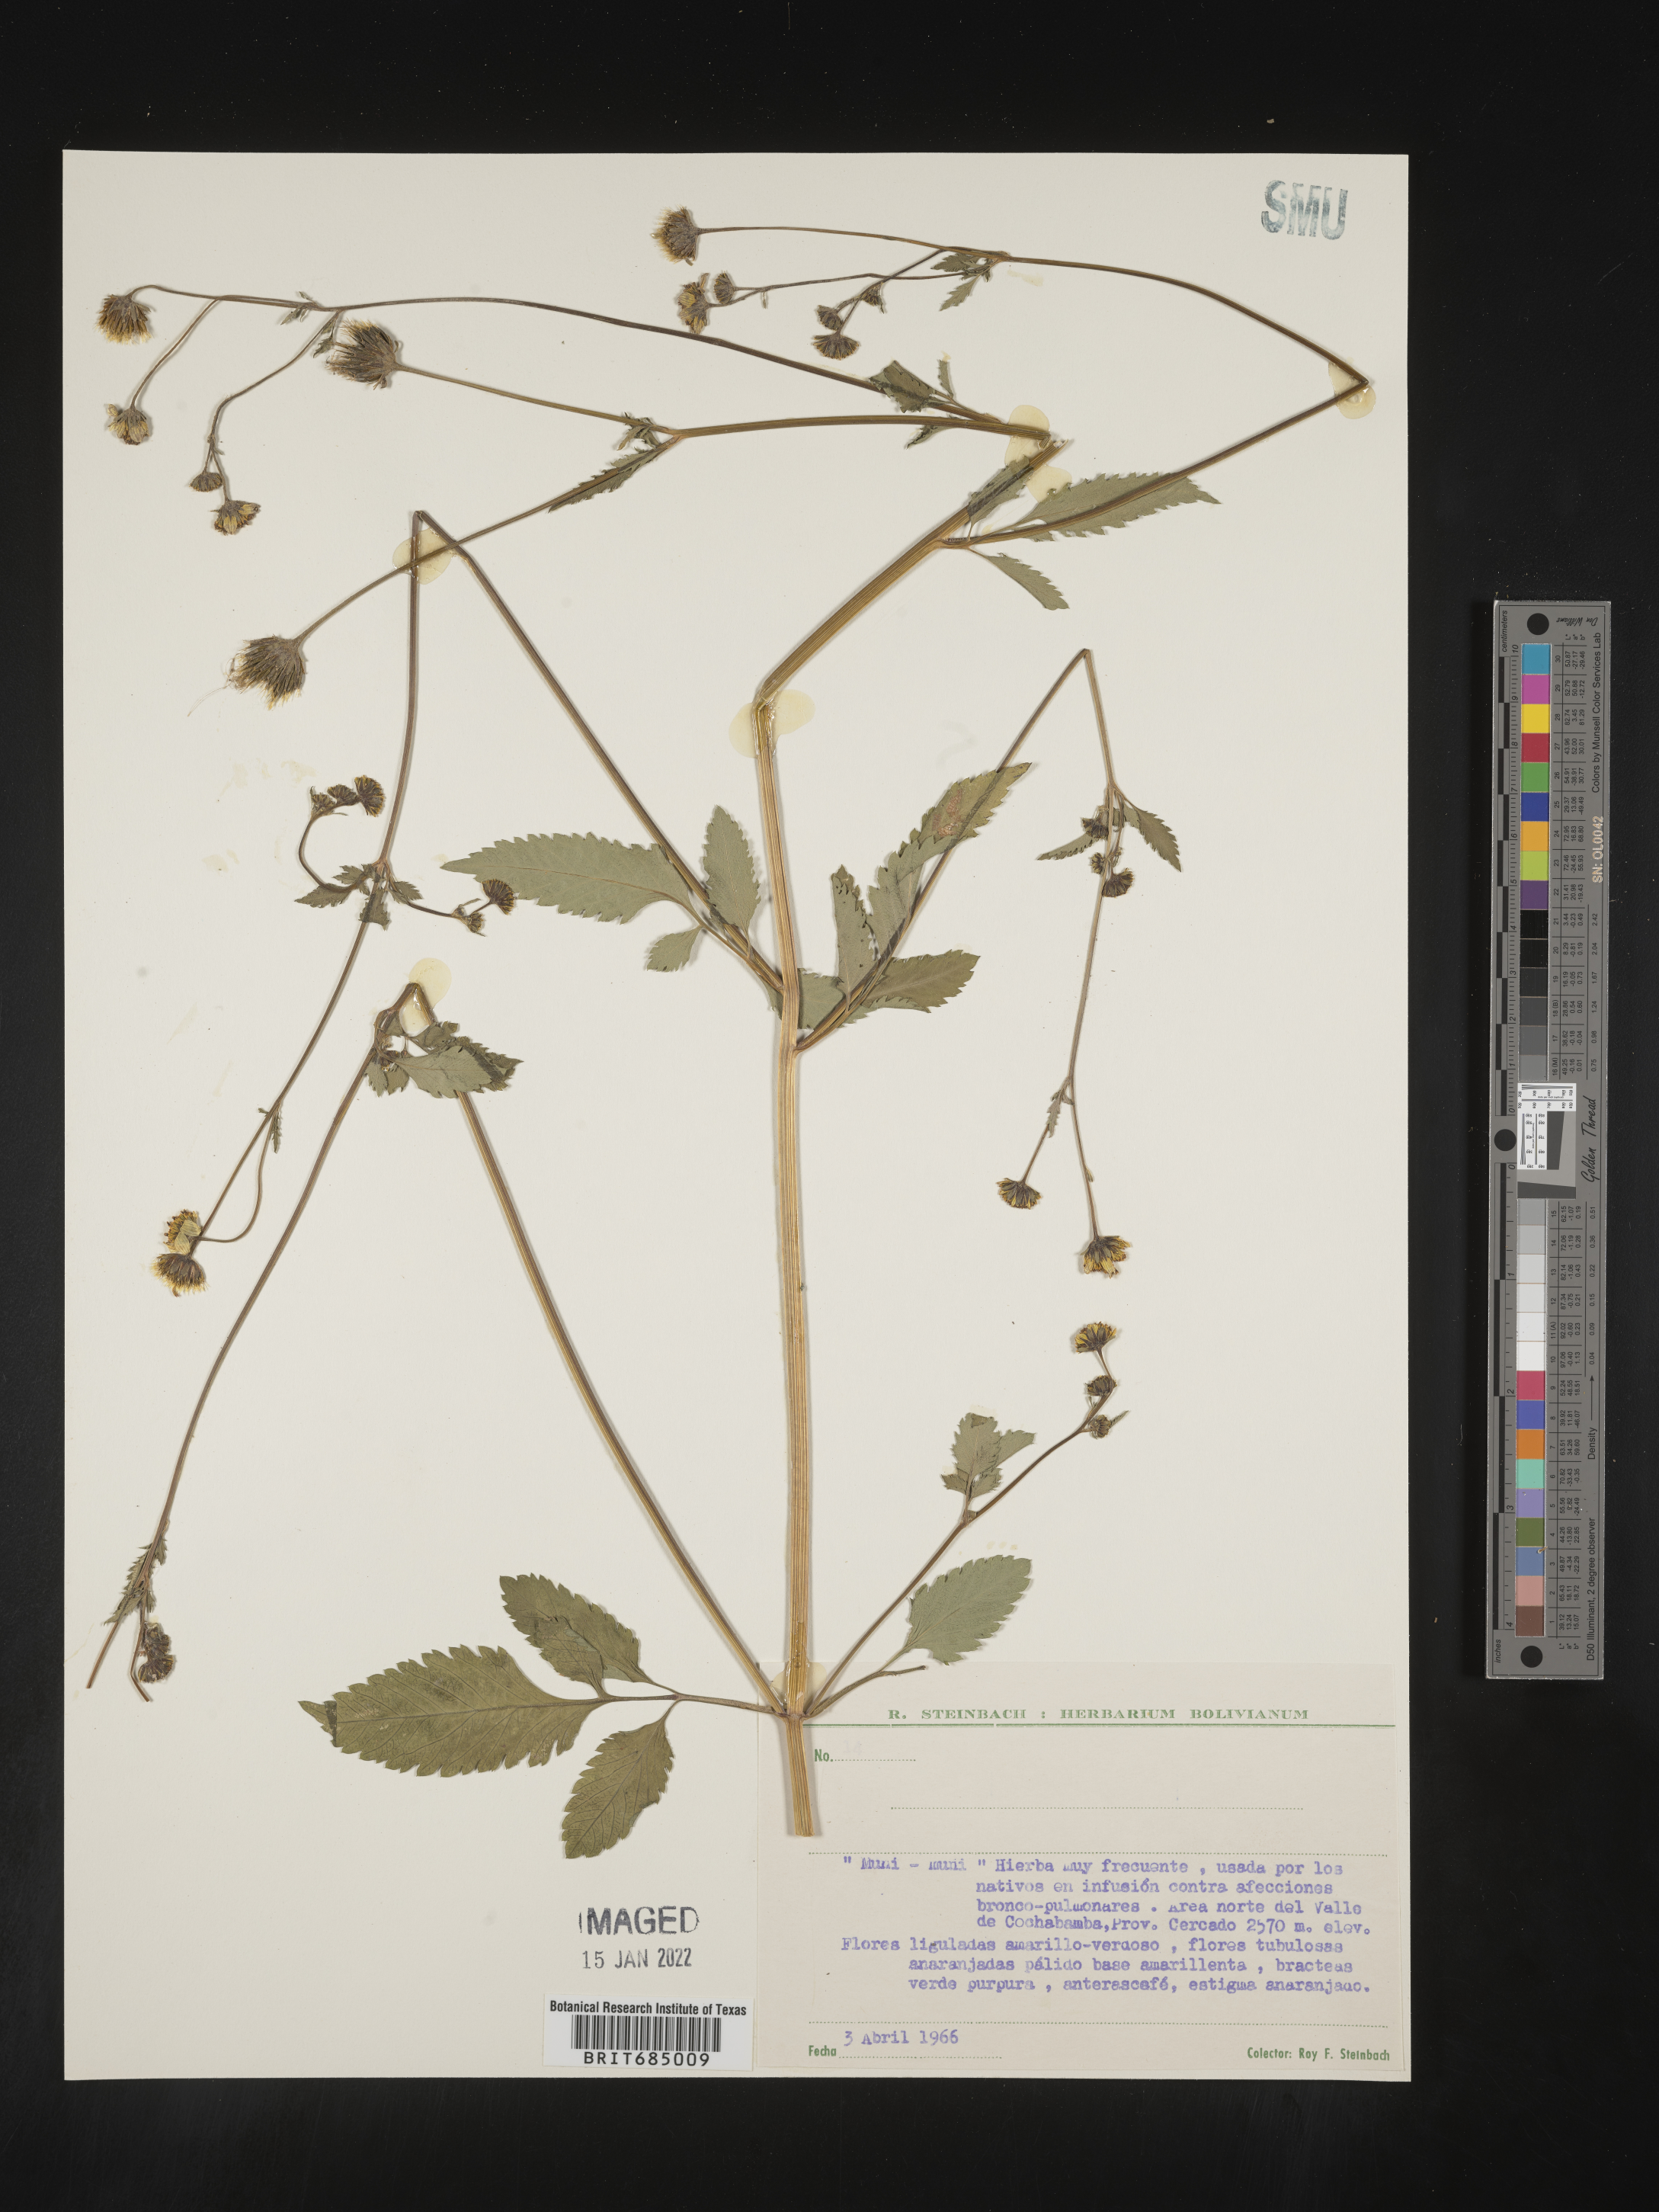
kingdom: Plantae
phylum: Tracheophyta
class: Magnoliopsida
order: Asterales
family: Asteraceae
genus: Bidens
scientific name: Bidens rubifolia
